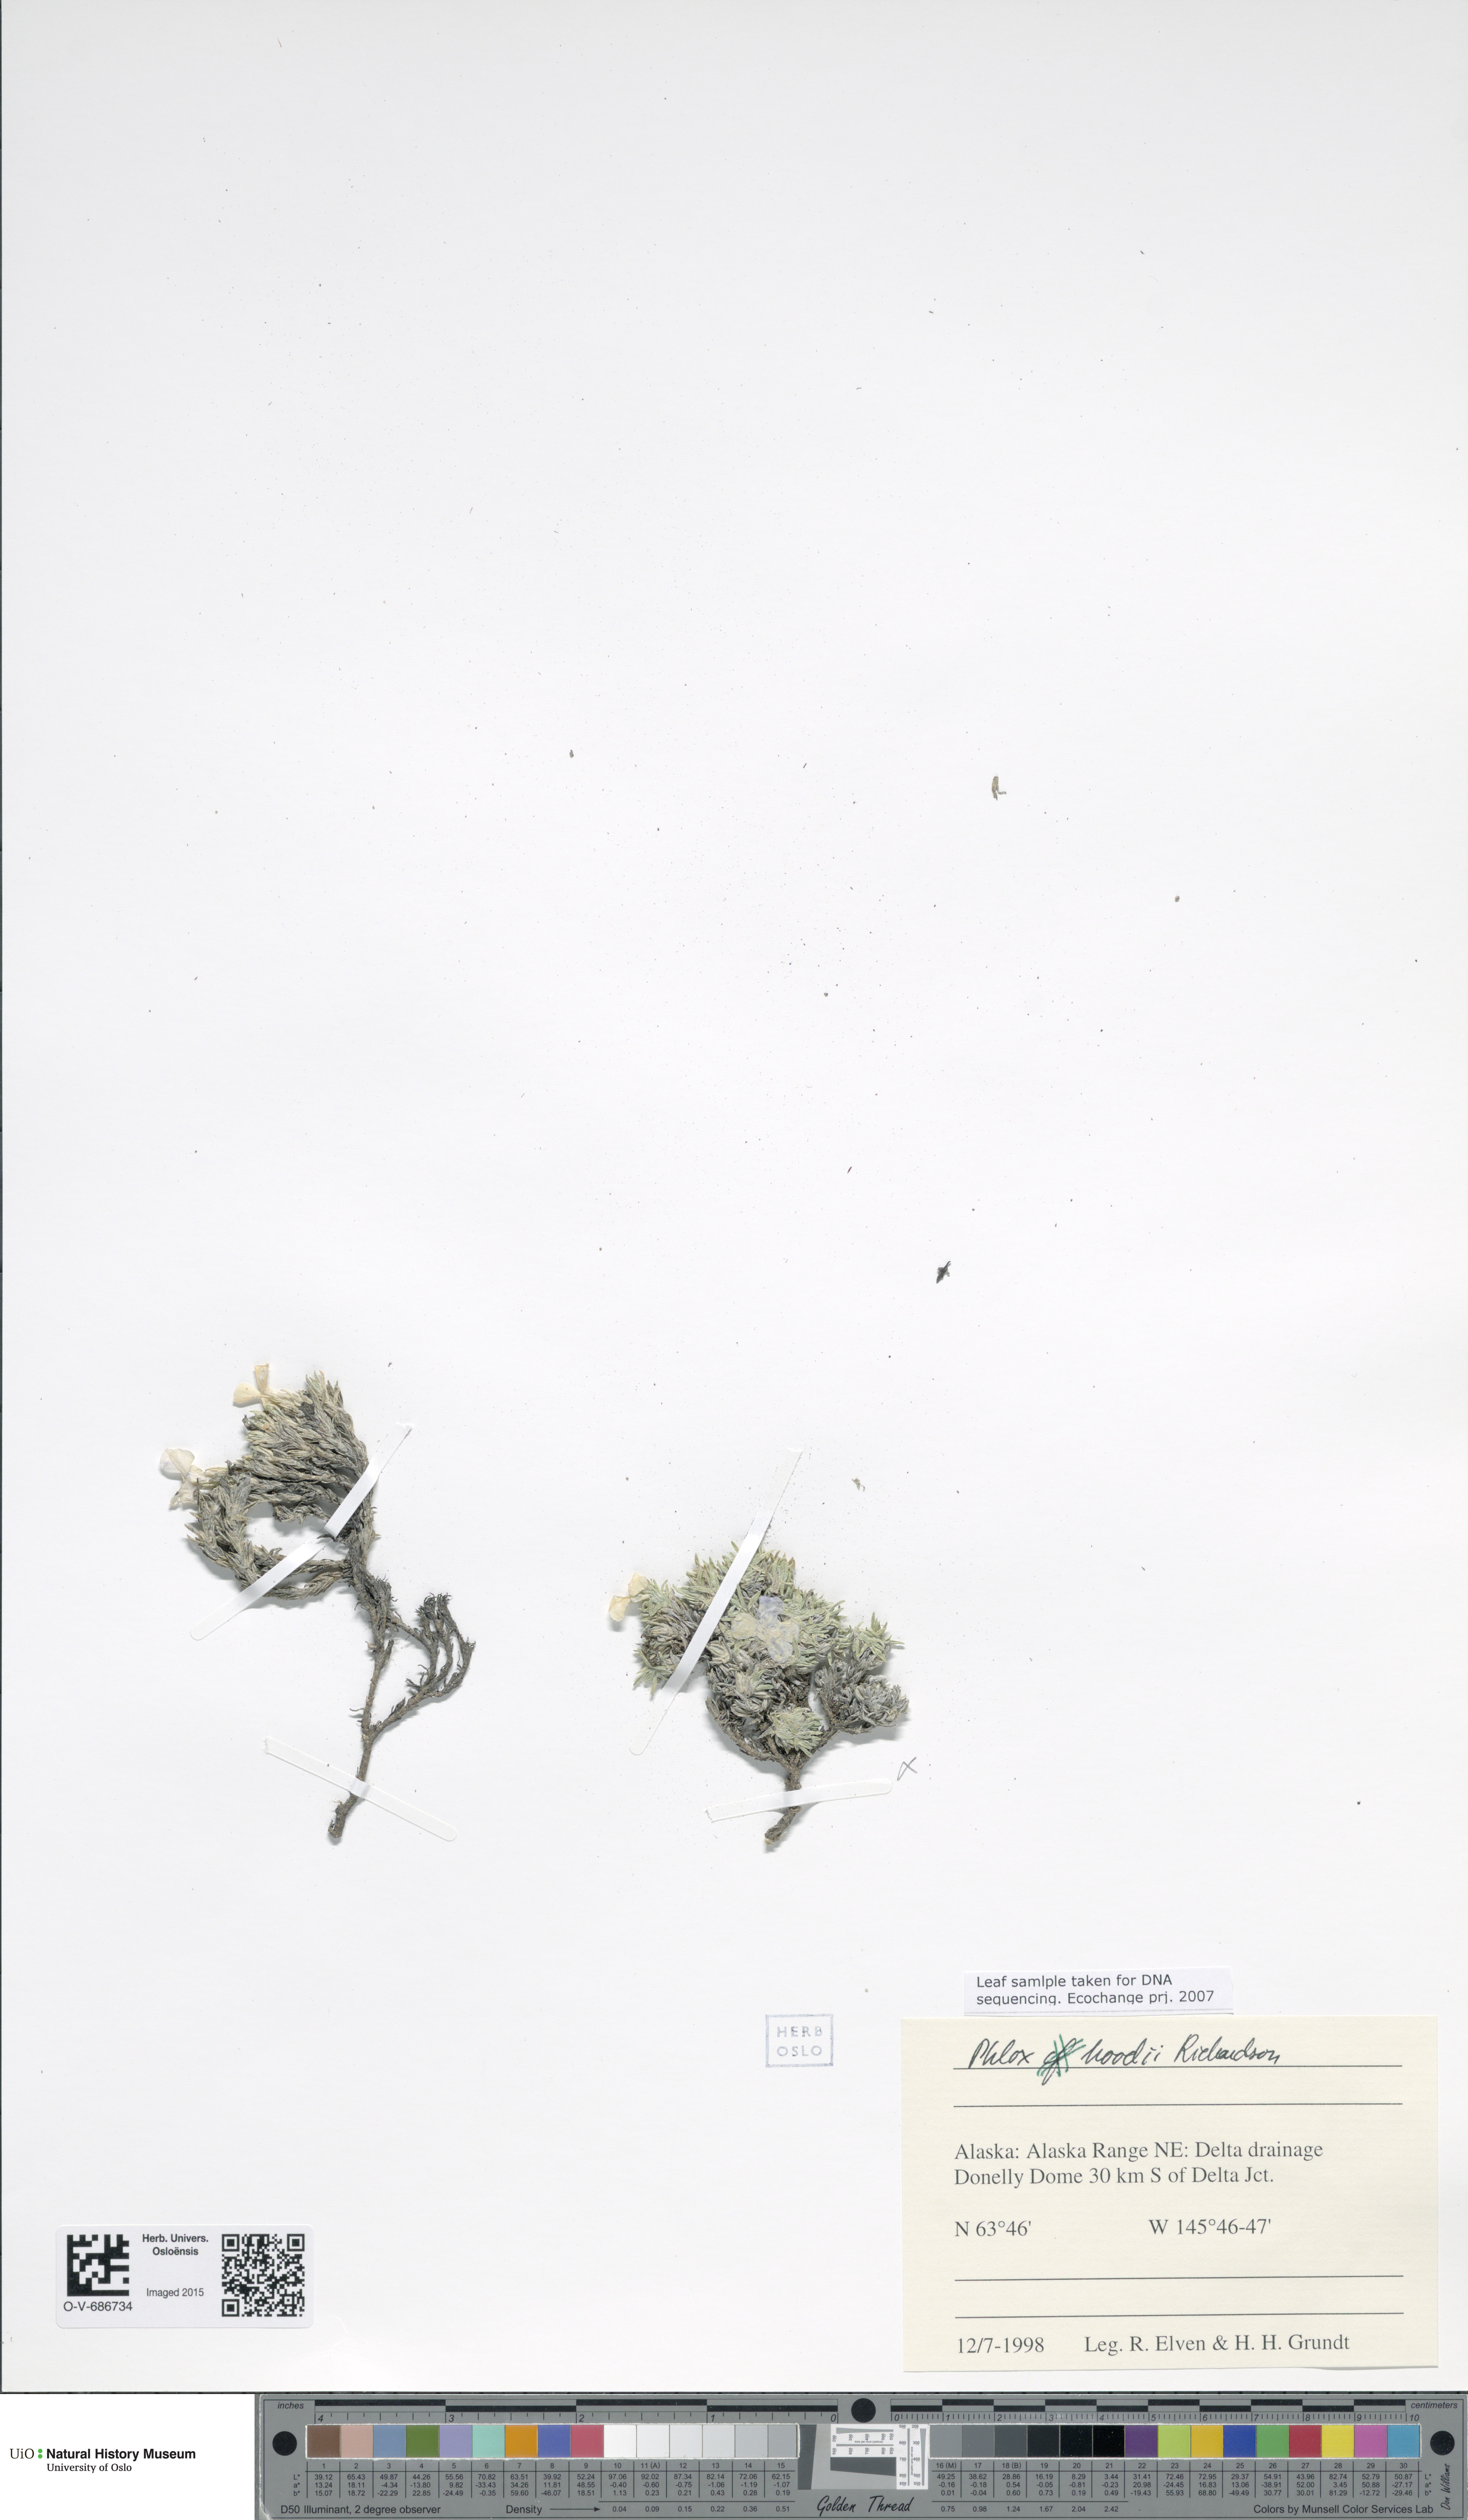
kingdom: Plantae
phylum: Tracheophyta
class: Magnoliopsida
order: Ericales
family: Polemoniaceae
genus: Phlox
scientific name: Phlox hoodii
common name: Moss phlox
